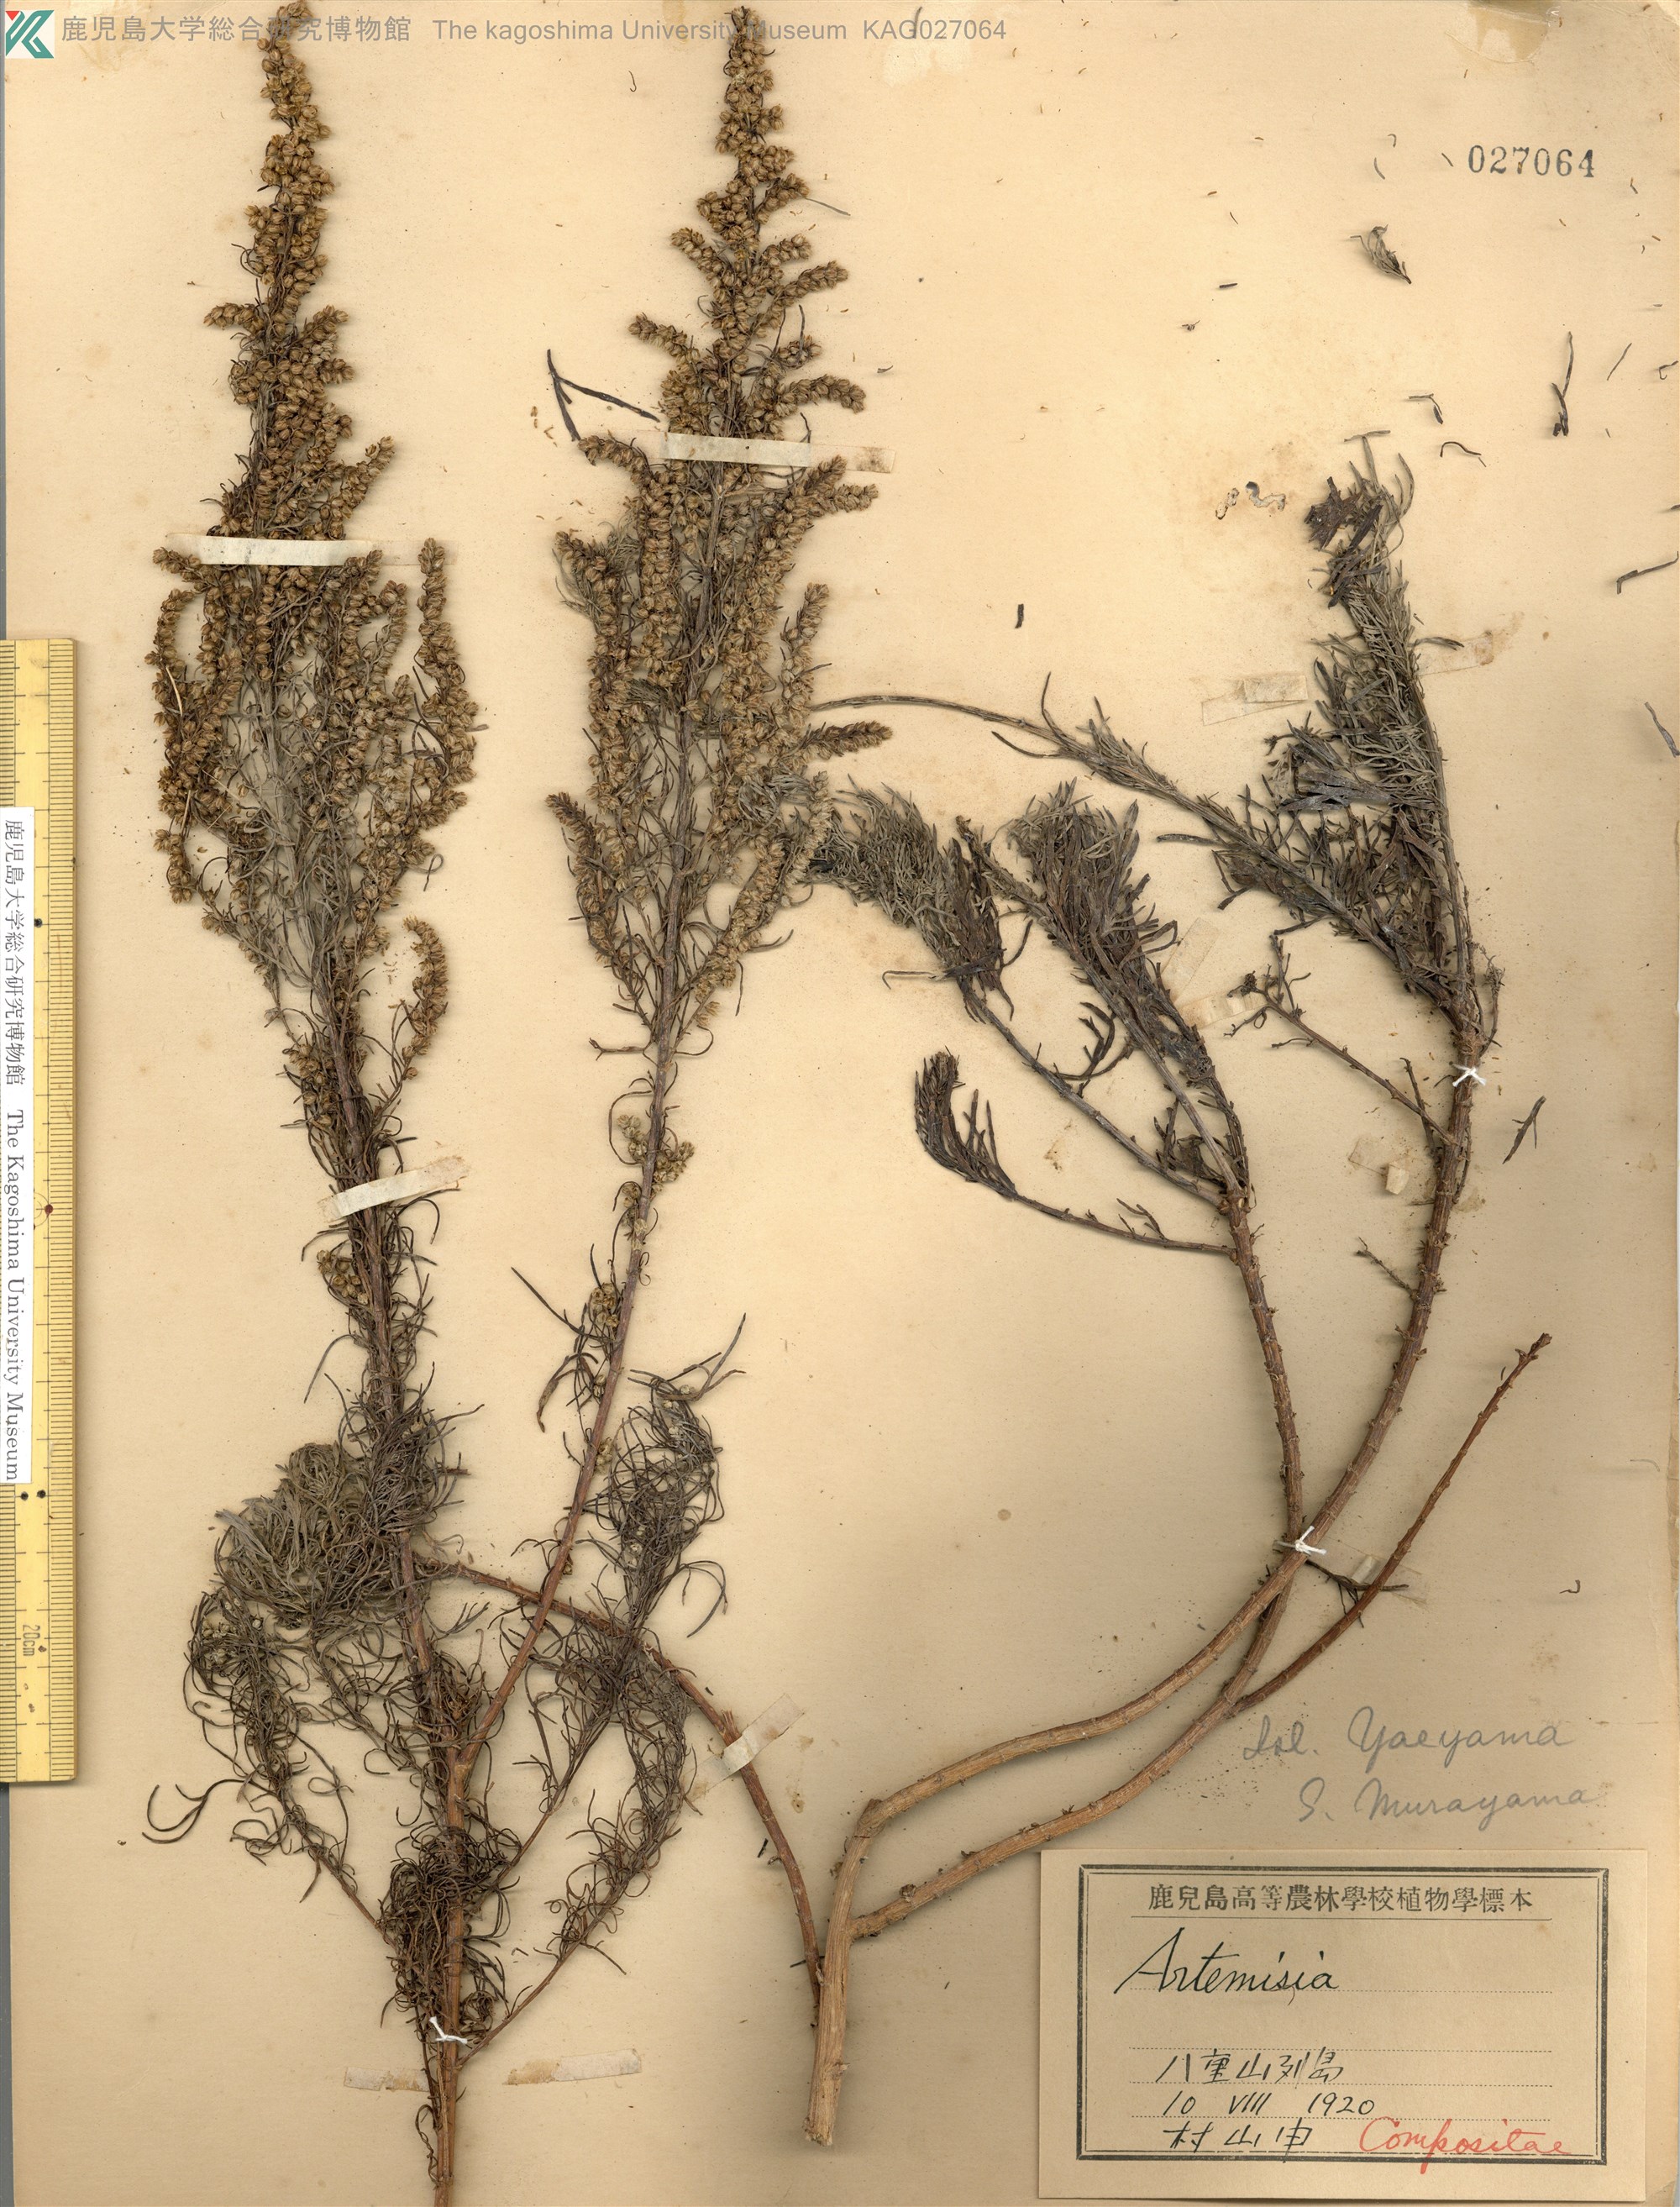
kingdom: Plantae
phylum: Tracheophyta
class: Magnoliopsida
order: Asterales
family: Asteraceae
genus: Artemisia
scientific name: Artemisia capillaris
